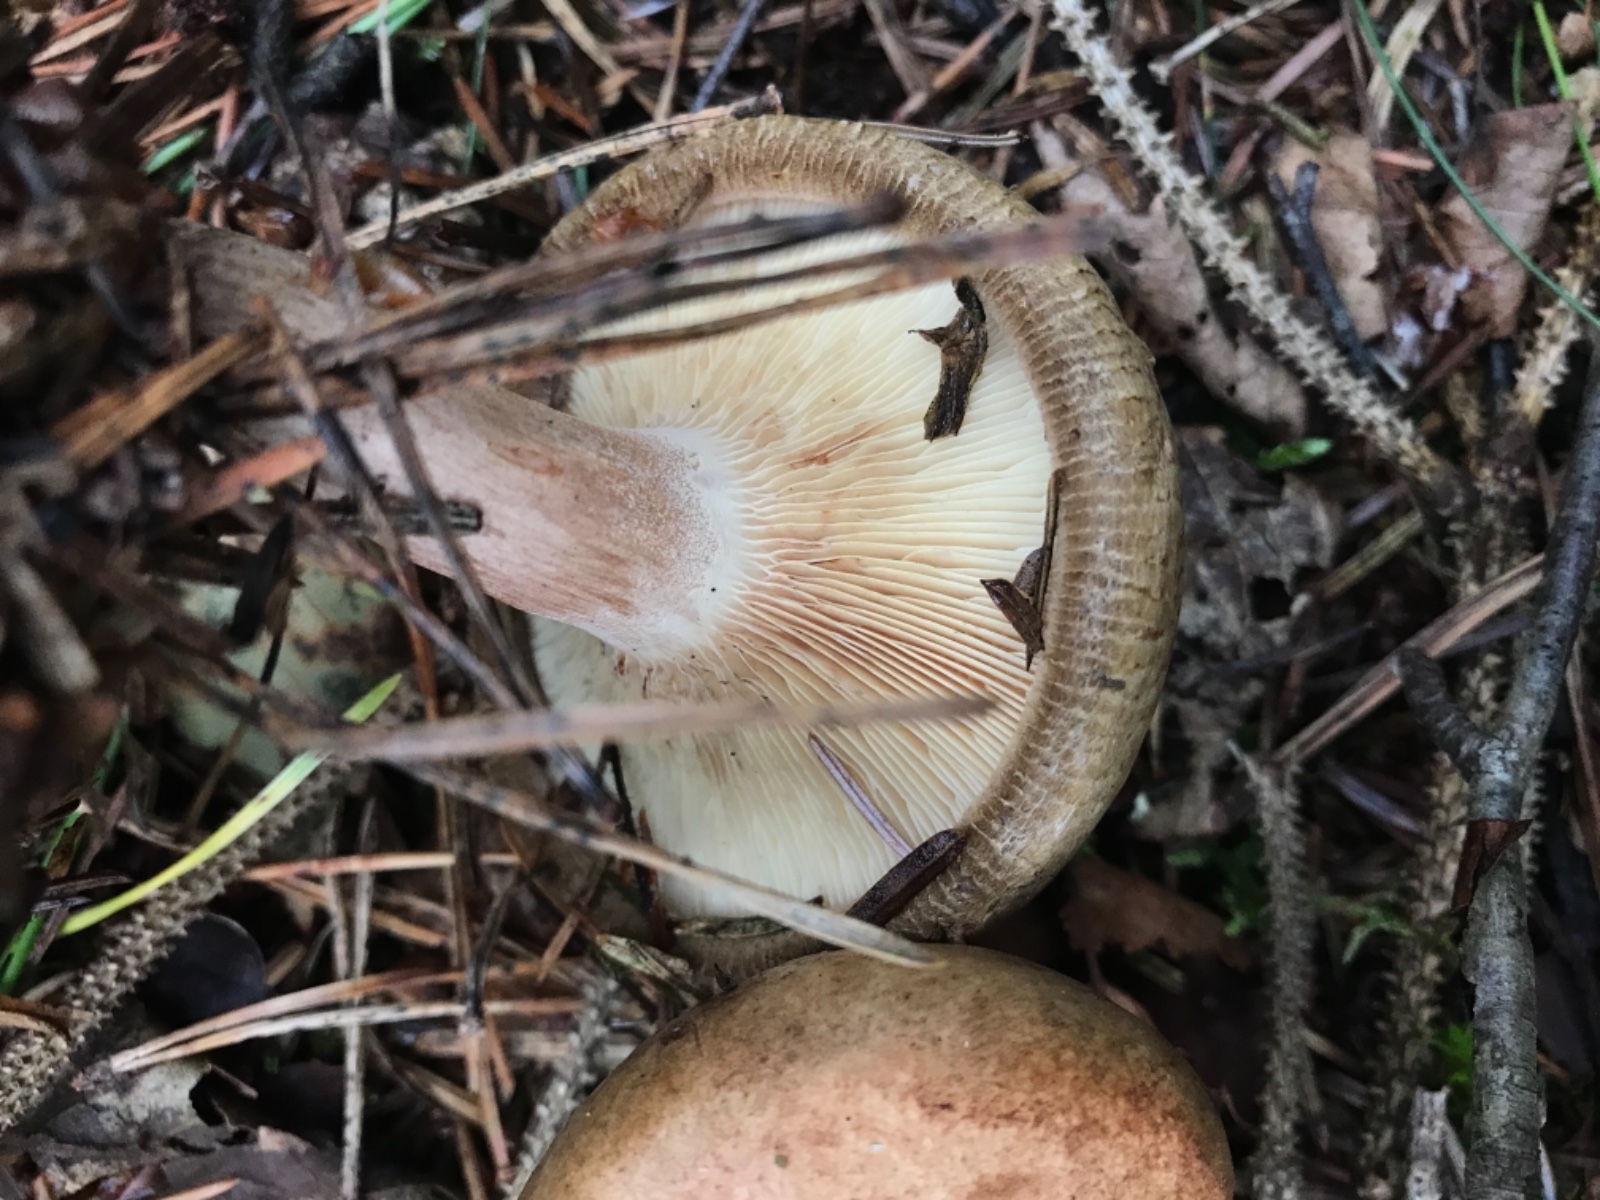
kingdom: Fungi
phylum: Basidiomycota
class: Agaricomycetes
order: Boletales
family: Paxillaceae
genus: Paxillus
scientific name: Paxillus involutus
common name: almindelig netbladhat
